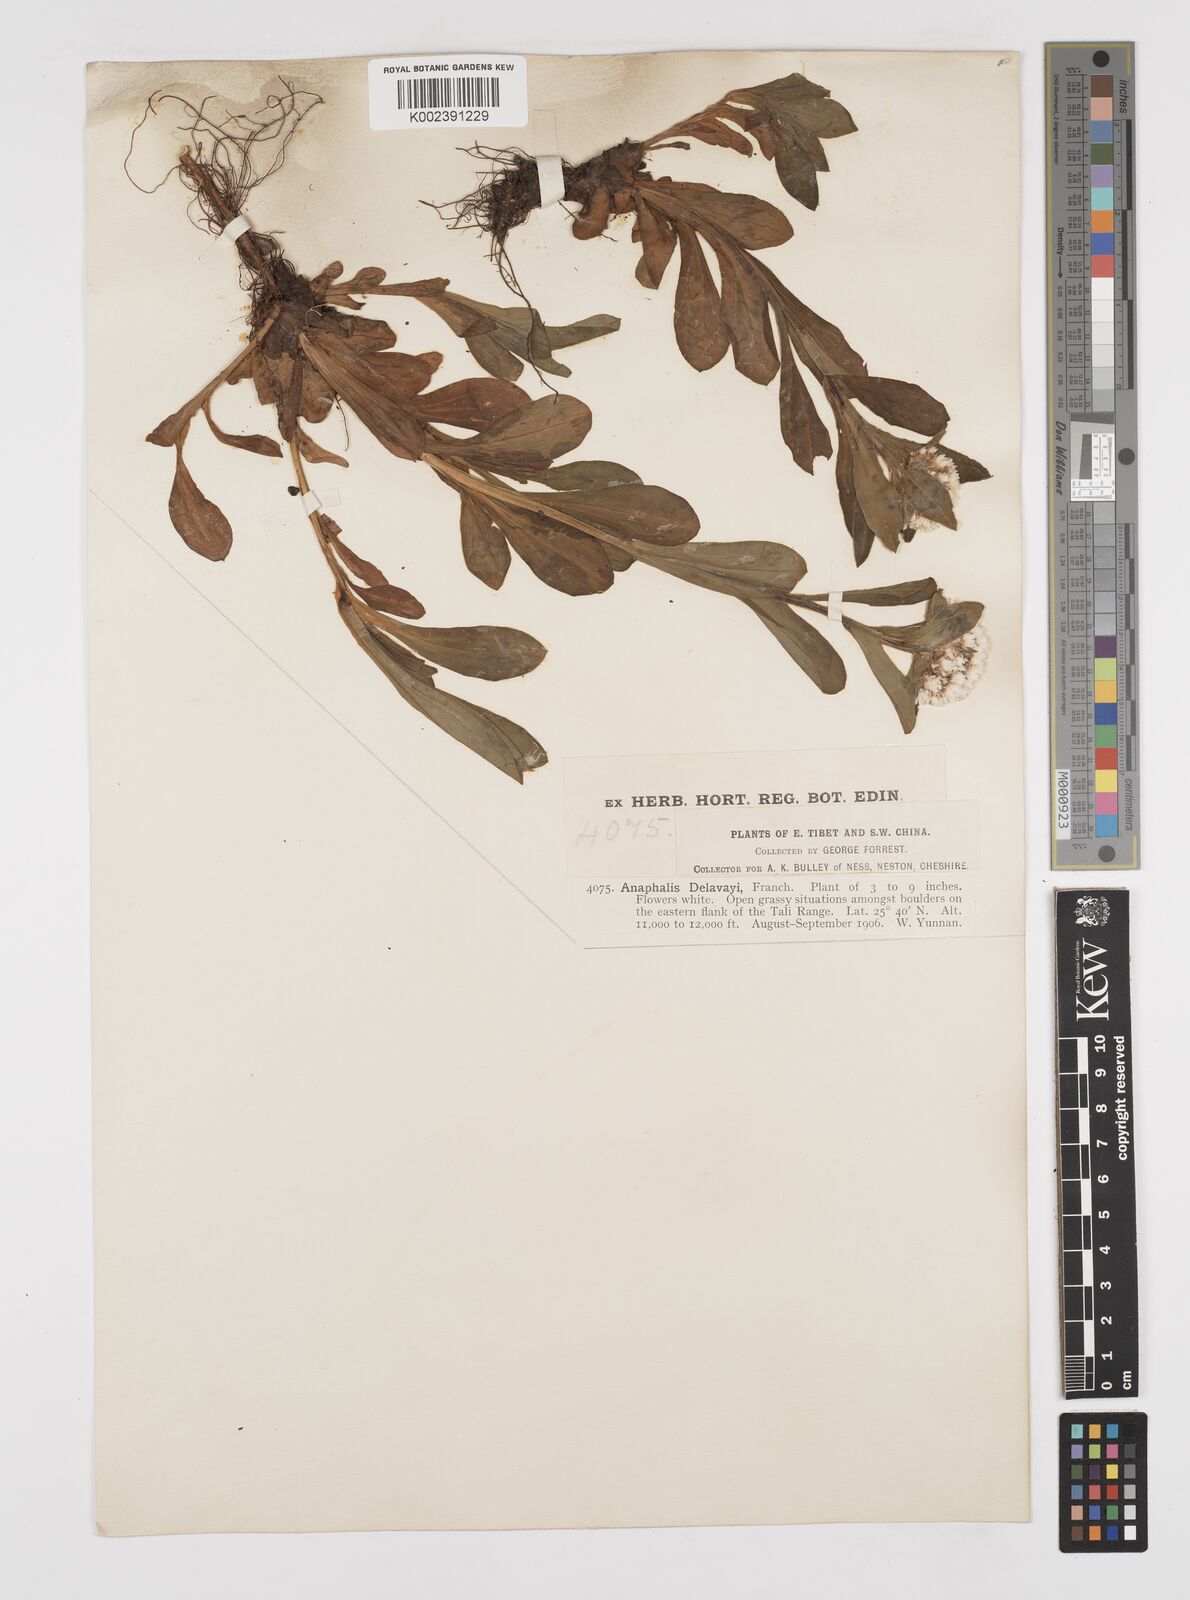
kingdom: Plantae
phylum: Tracheophyta
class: Magnoliopsida
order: Asterales
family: Asteraceae
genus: Anaphalis
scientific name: Anaphalis delavayi
